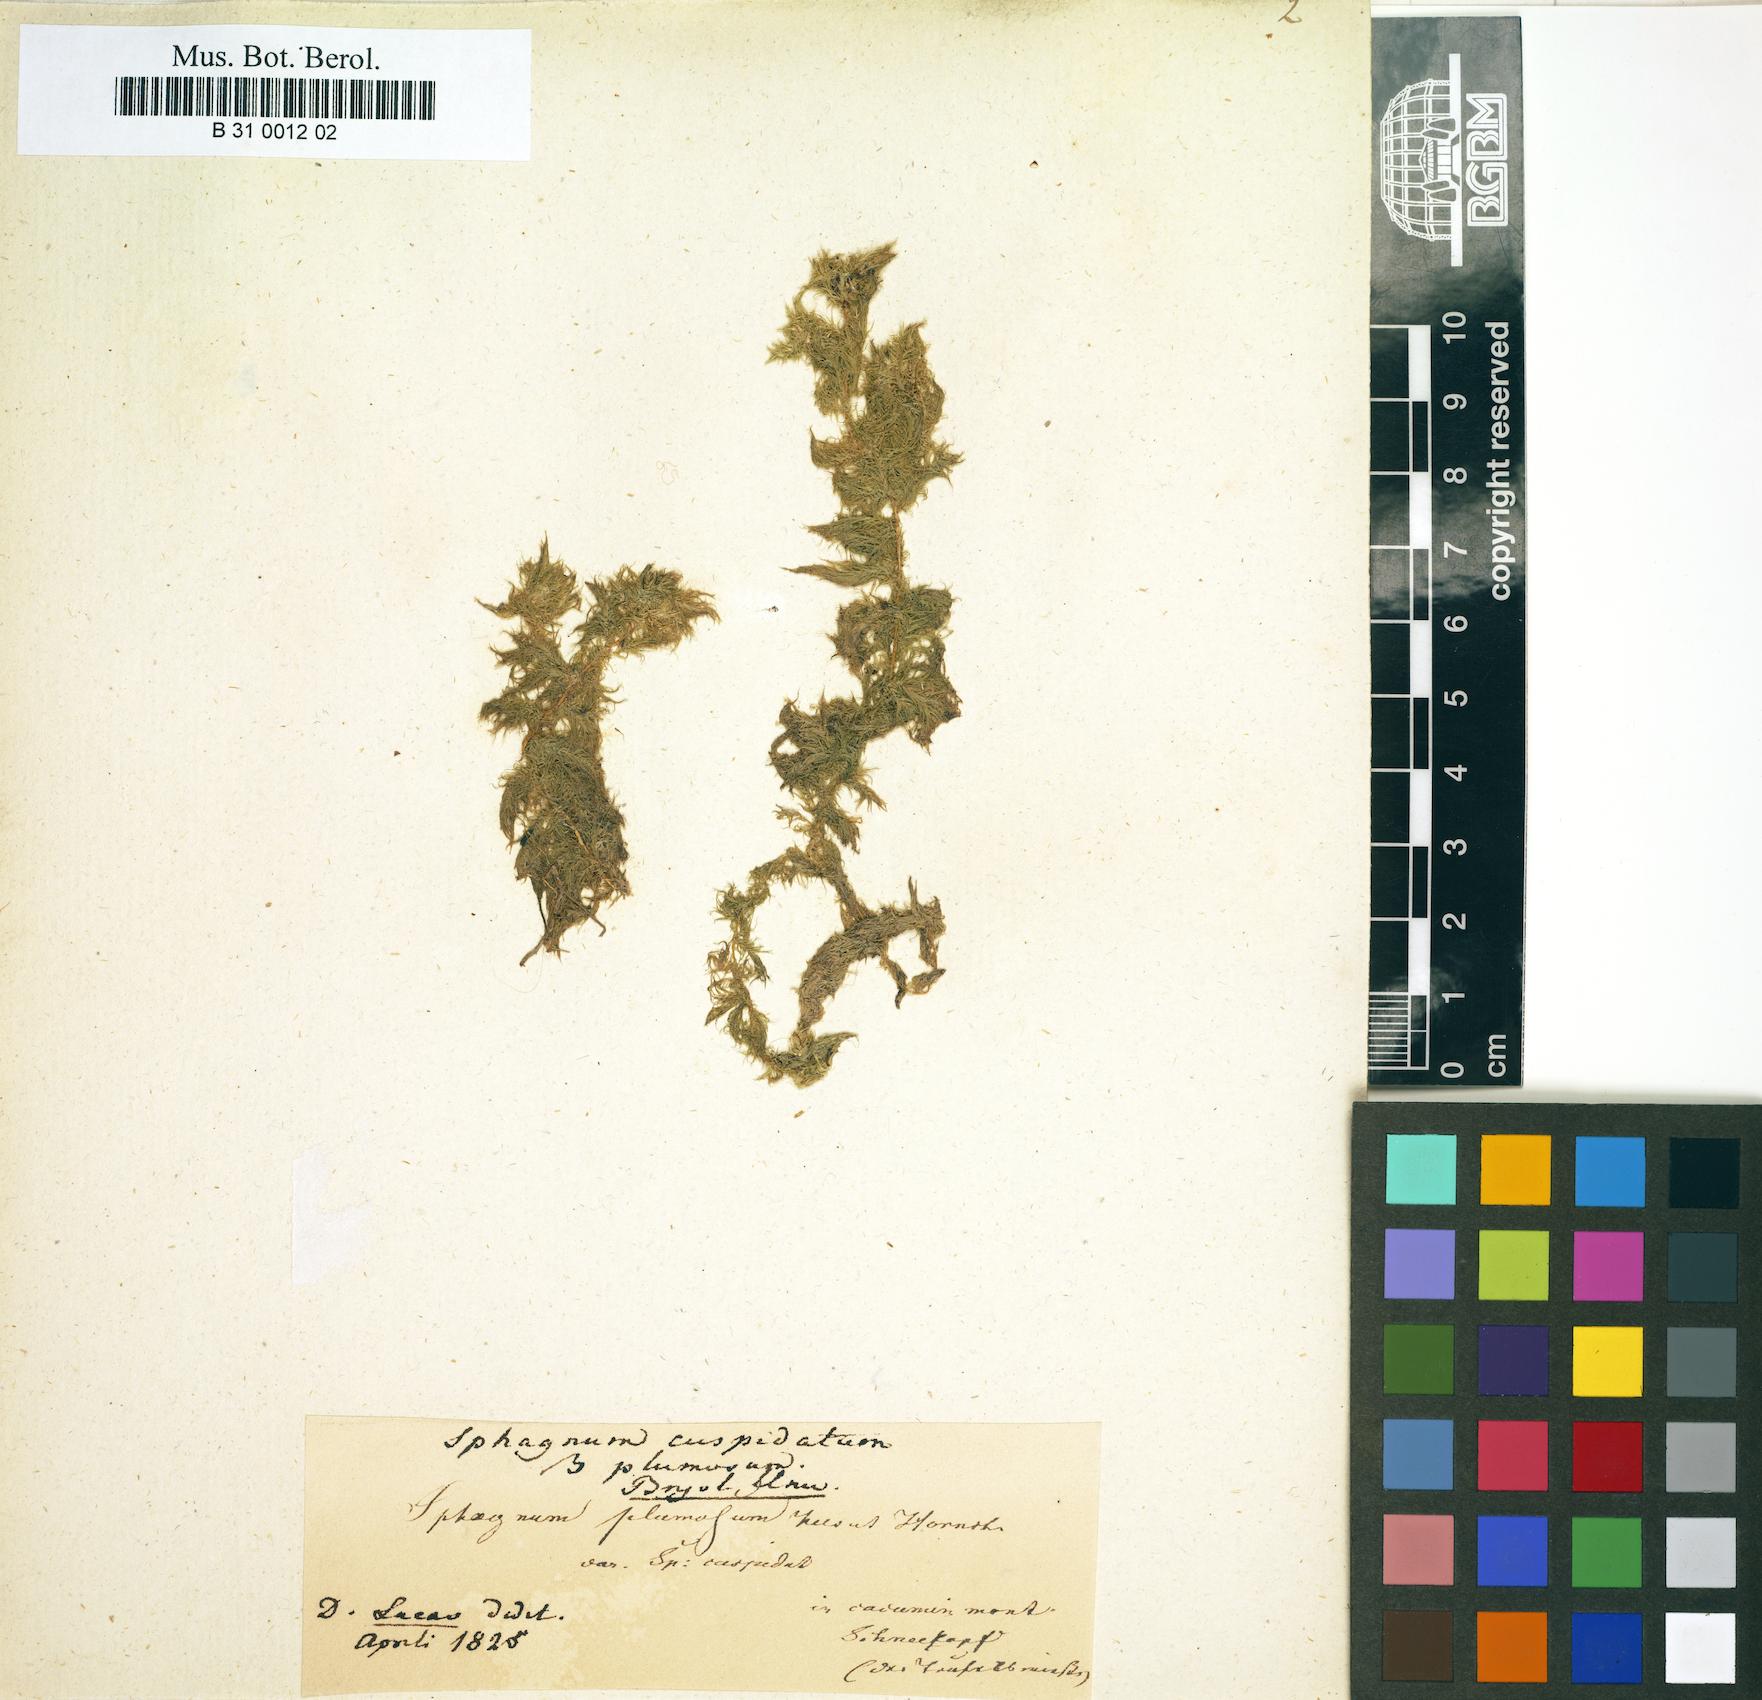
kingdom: Plantae
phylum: Bryophyta
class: Sphagnopsida
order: Sphagnales
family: Sphagnaceae
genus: Sphagnum
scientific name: Sphagnum cuspidatum
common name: Feathery peat moss
